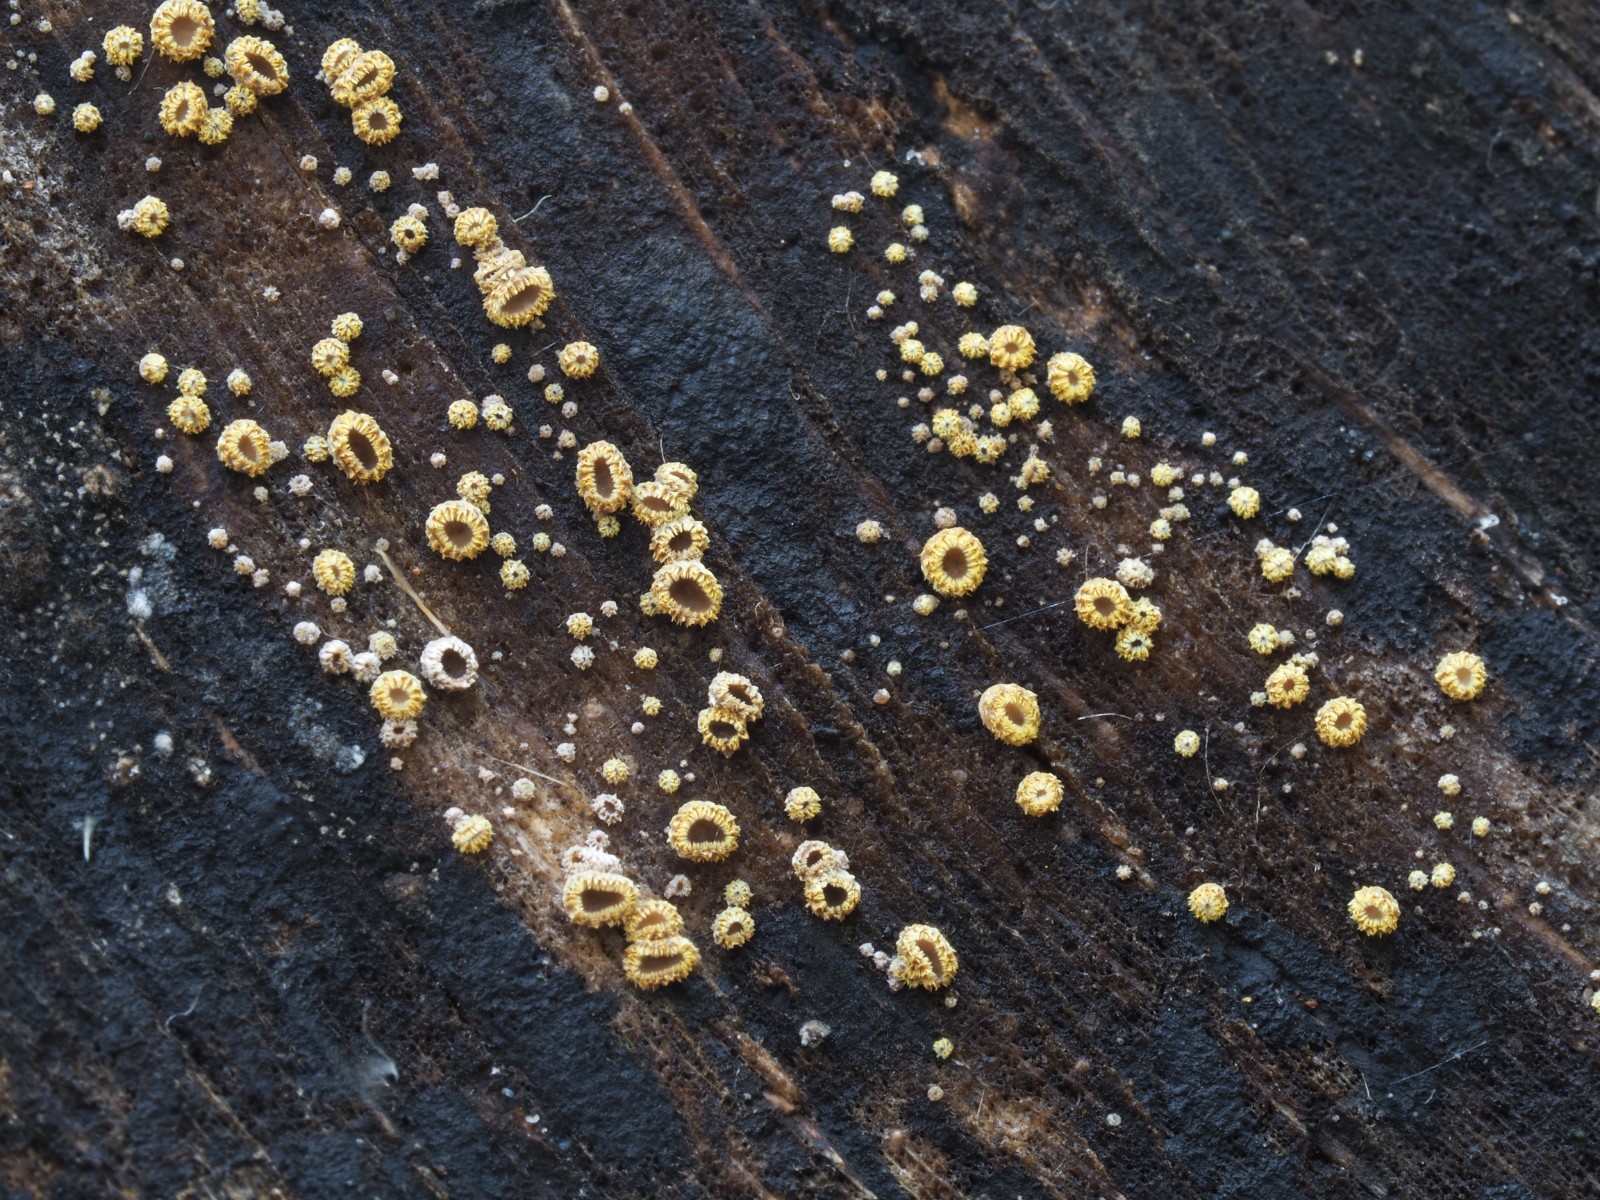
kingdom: Fungi
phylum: Ascomycota
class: Leotiomycetes
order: Helotiales
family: Lachnaceae
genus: Trichopeziza
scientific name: Trichopeziza subsulphurea
